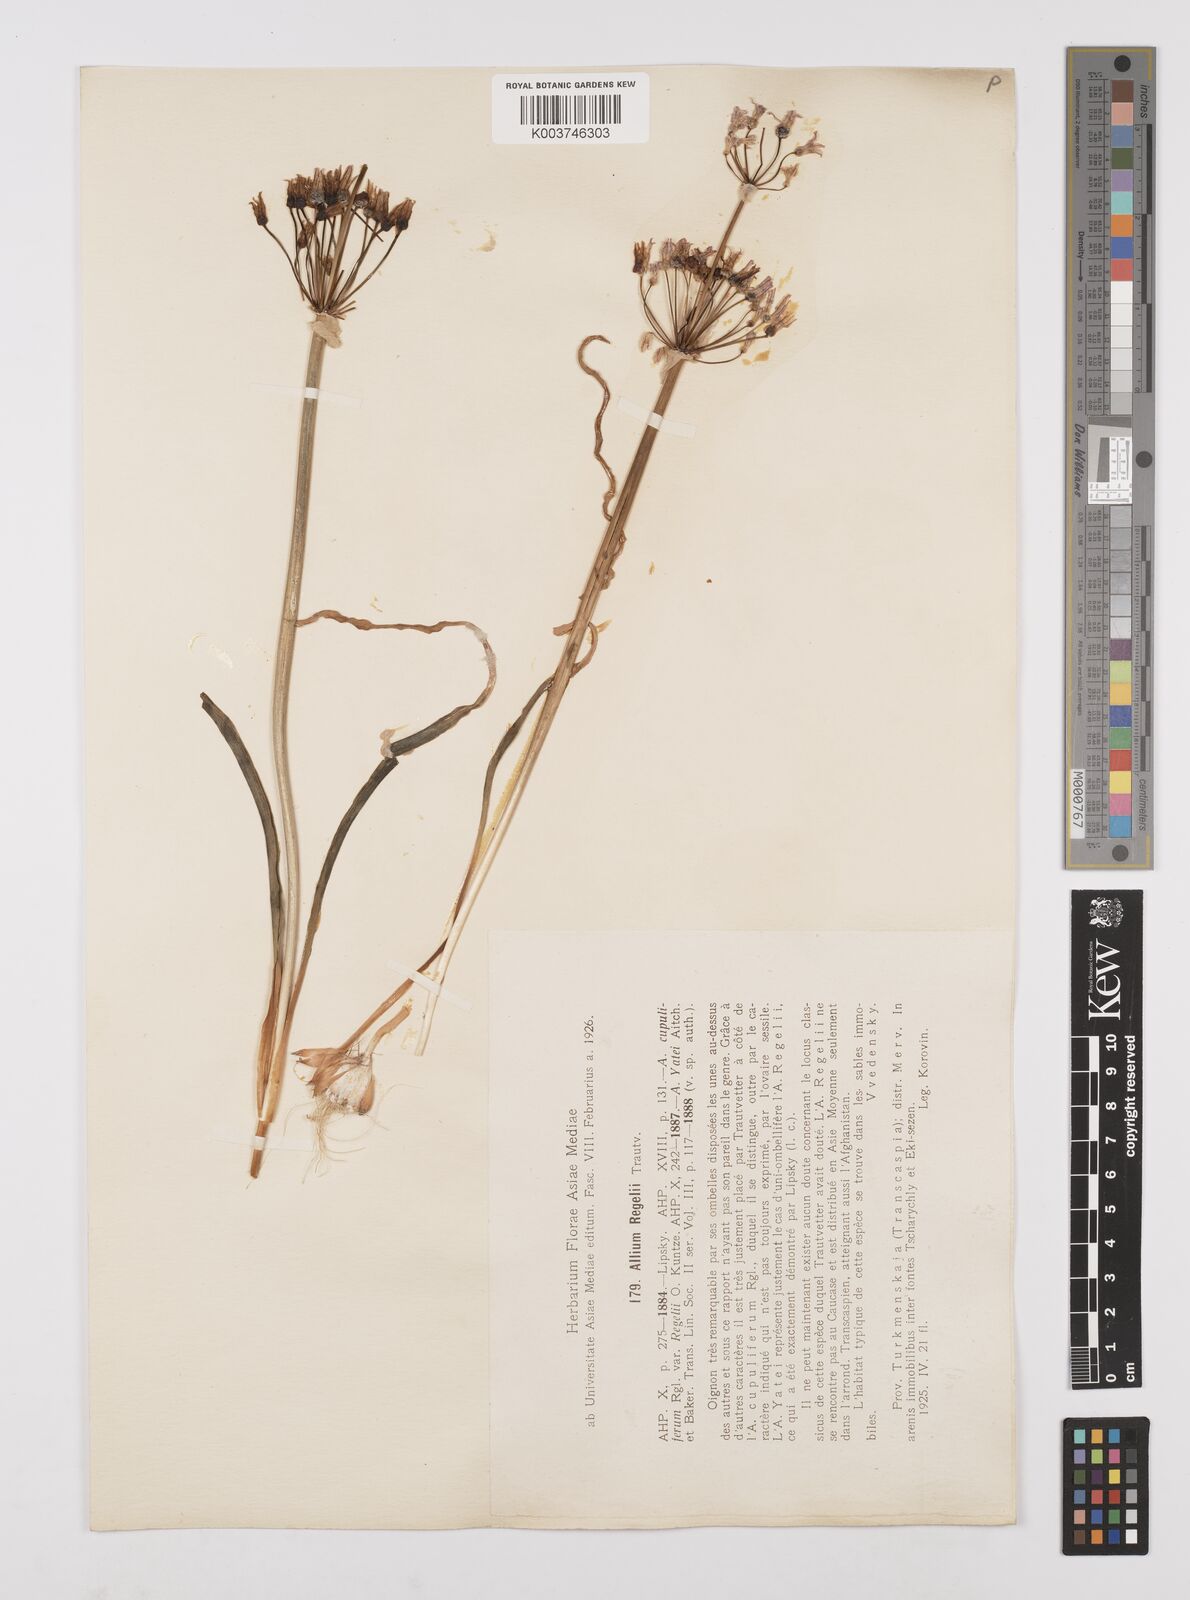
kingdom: Plantae
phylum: Tracheophyta
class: Liliopsida
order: Asparagales
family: Amaryllidaceae
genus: Allium
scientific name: Allium regelii
